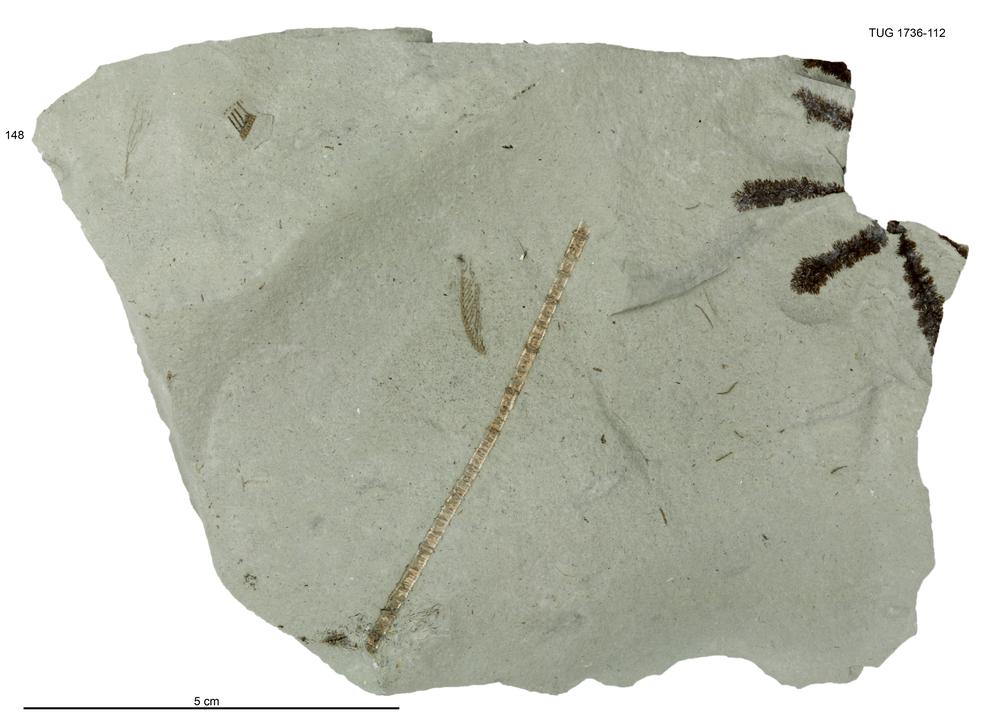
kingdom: Animalia
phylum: Echinodermata
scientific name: Echinodermata
